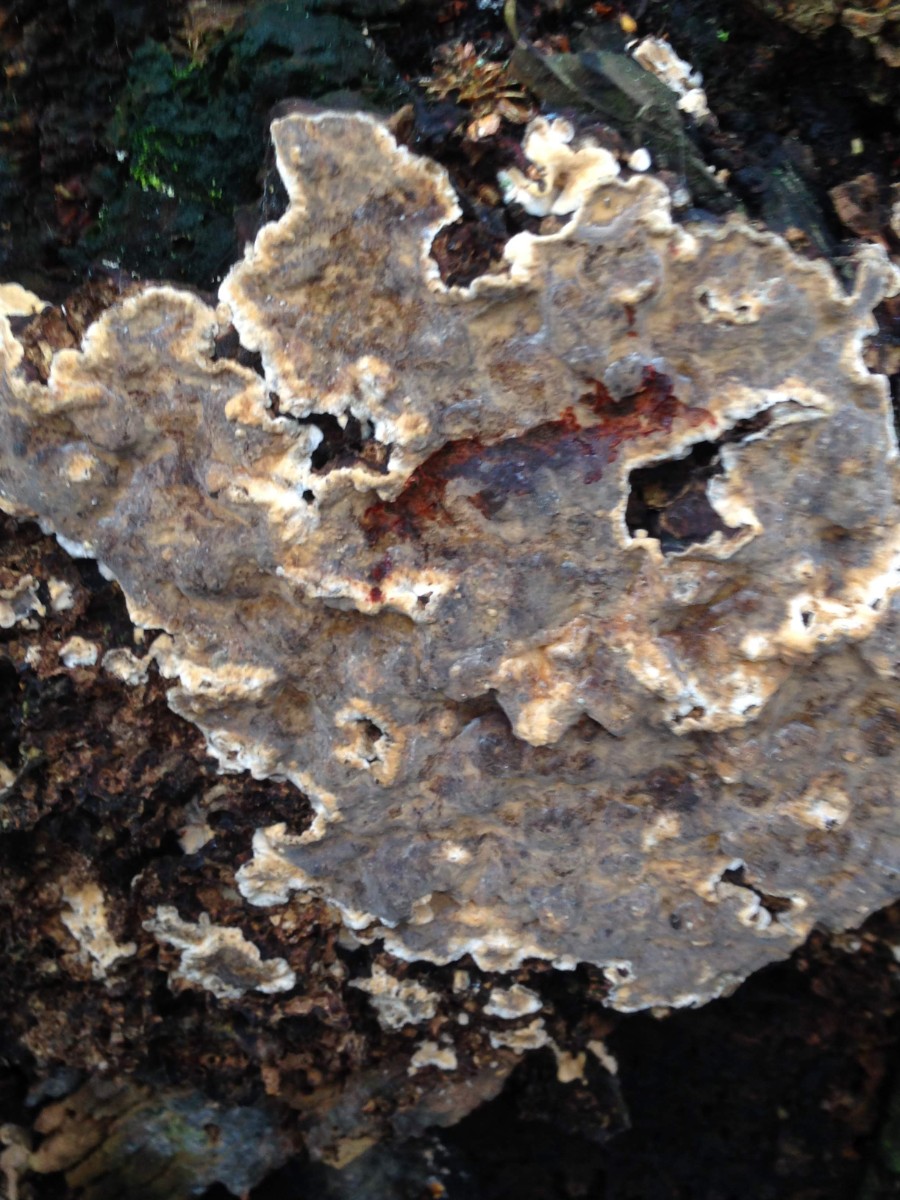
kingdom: Fungi
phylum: Basidiomycota
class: Agaricomycetes
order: Russulales
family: Stereaceae
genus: Stereum
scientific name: Stereum rugosum
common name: rynket lædersvamp
